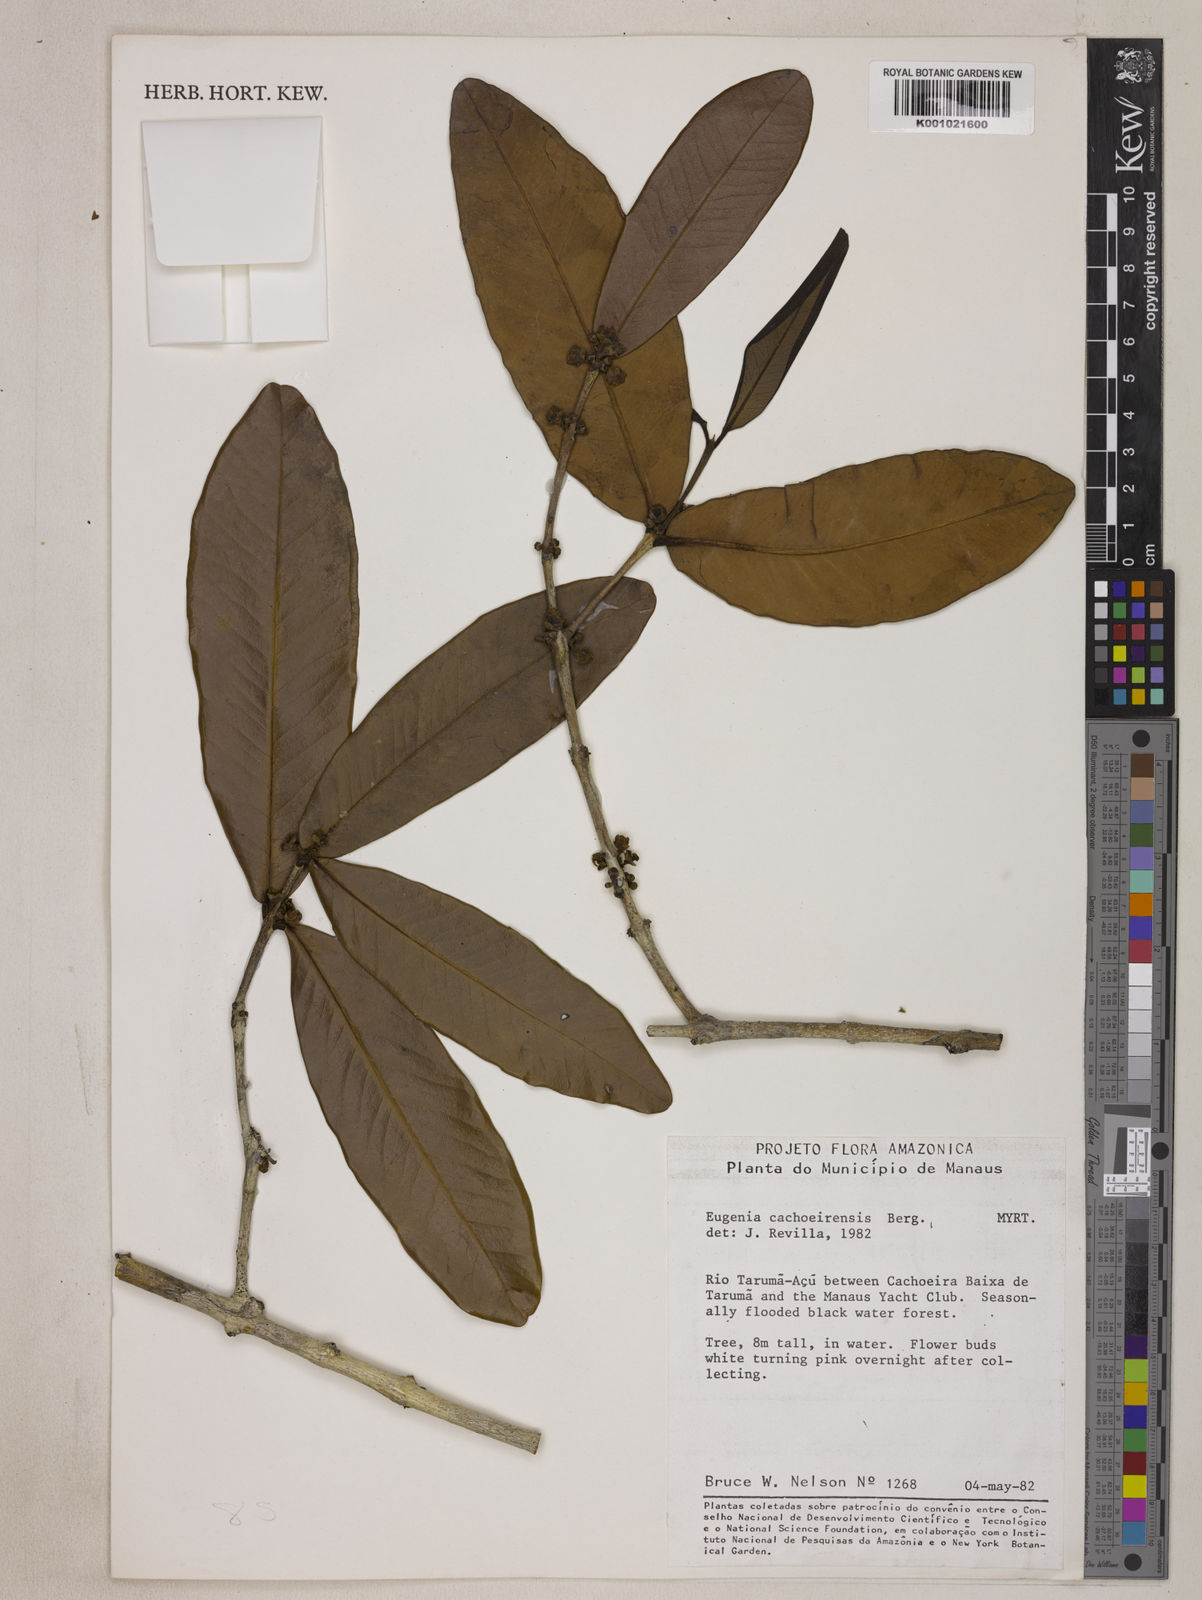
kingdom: Plantae
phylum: Tracheophyta
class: Magnoliopsida
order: Myrtales
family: Myrtaceae
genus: Eugenia
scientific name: Eugenia cachoeirensis
